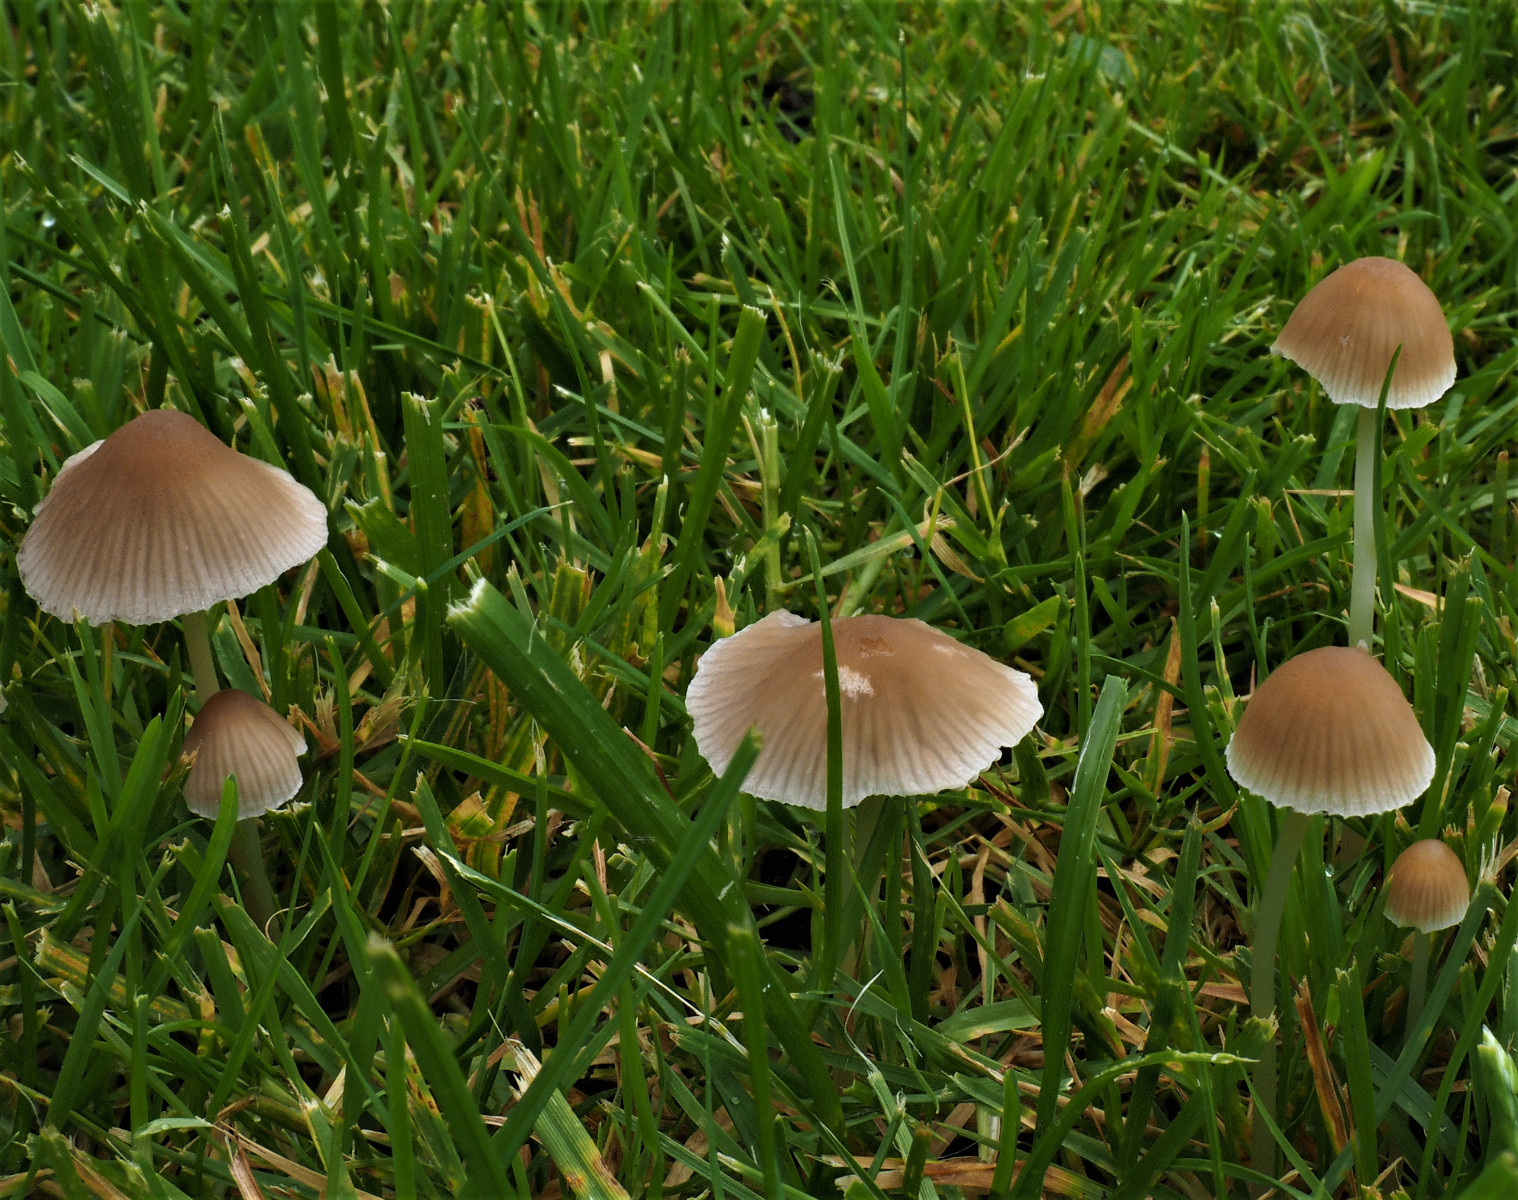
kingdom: Fungi
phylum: Basidiomycota
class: Agaricomycetes
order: Agaricales
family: Psathyrellaceae
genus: Psathyrella
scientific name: Psathyrella
